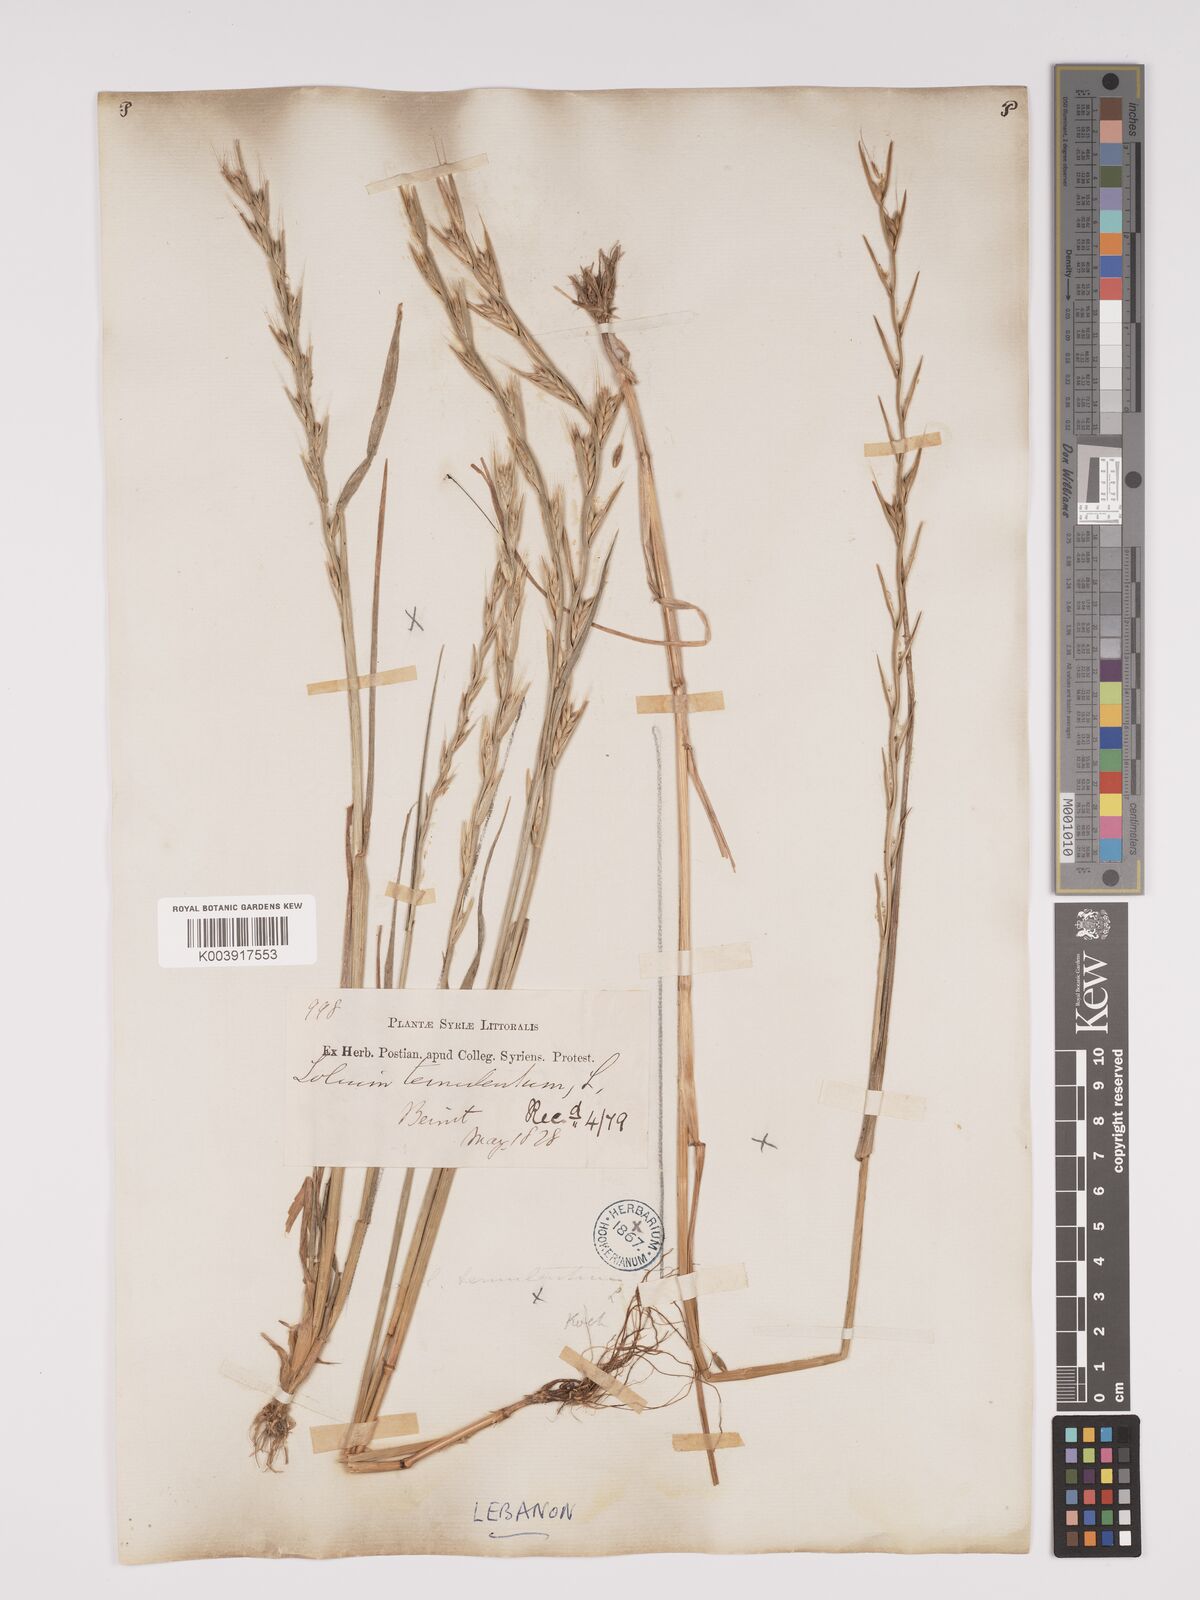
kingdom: Plantae
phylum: Tracheophyta
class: Liliopsida
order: Poales
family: Poaceae
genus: Lolium
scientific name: Lolium temulentum
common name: Darnel
